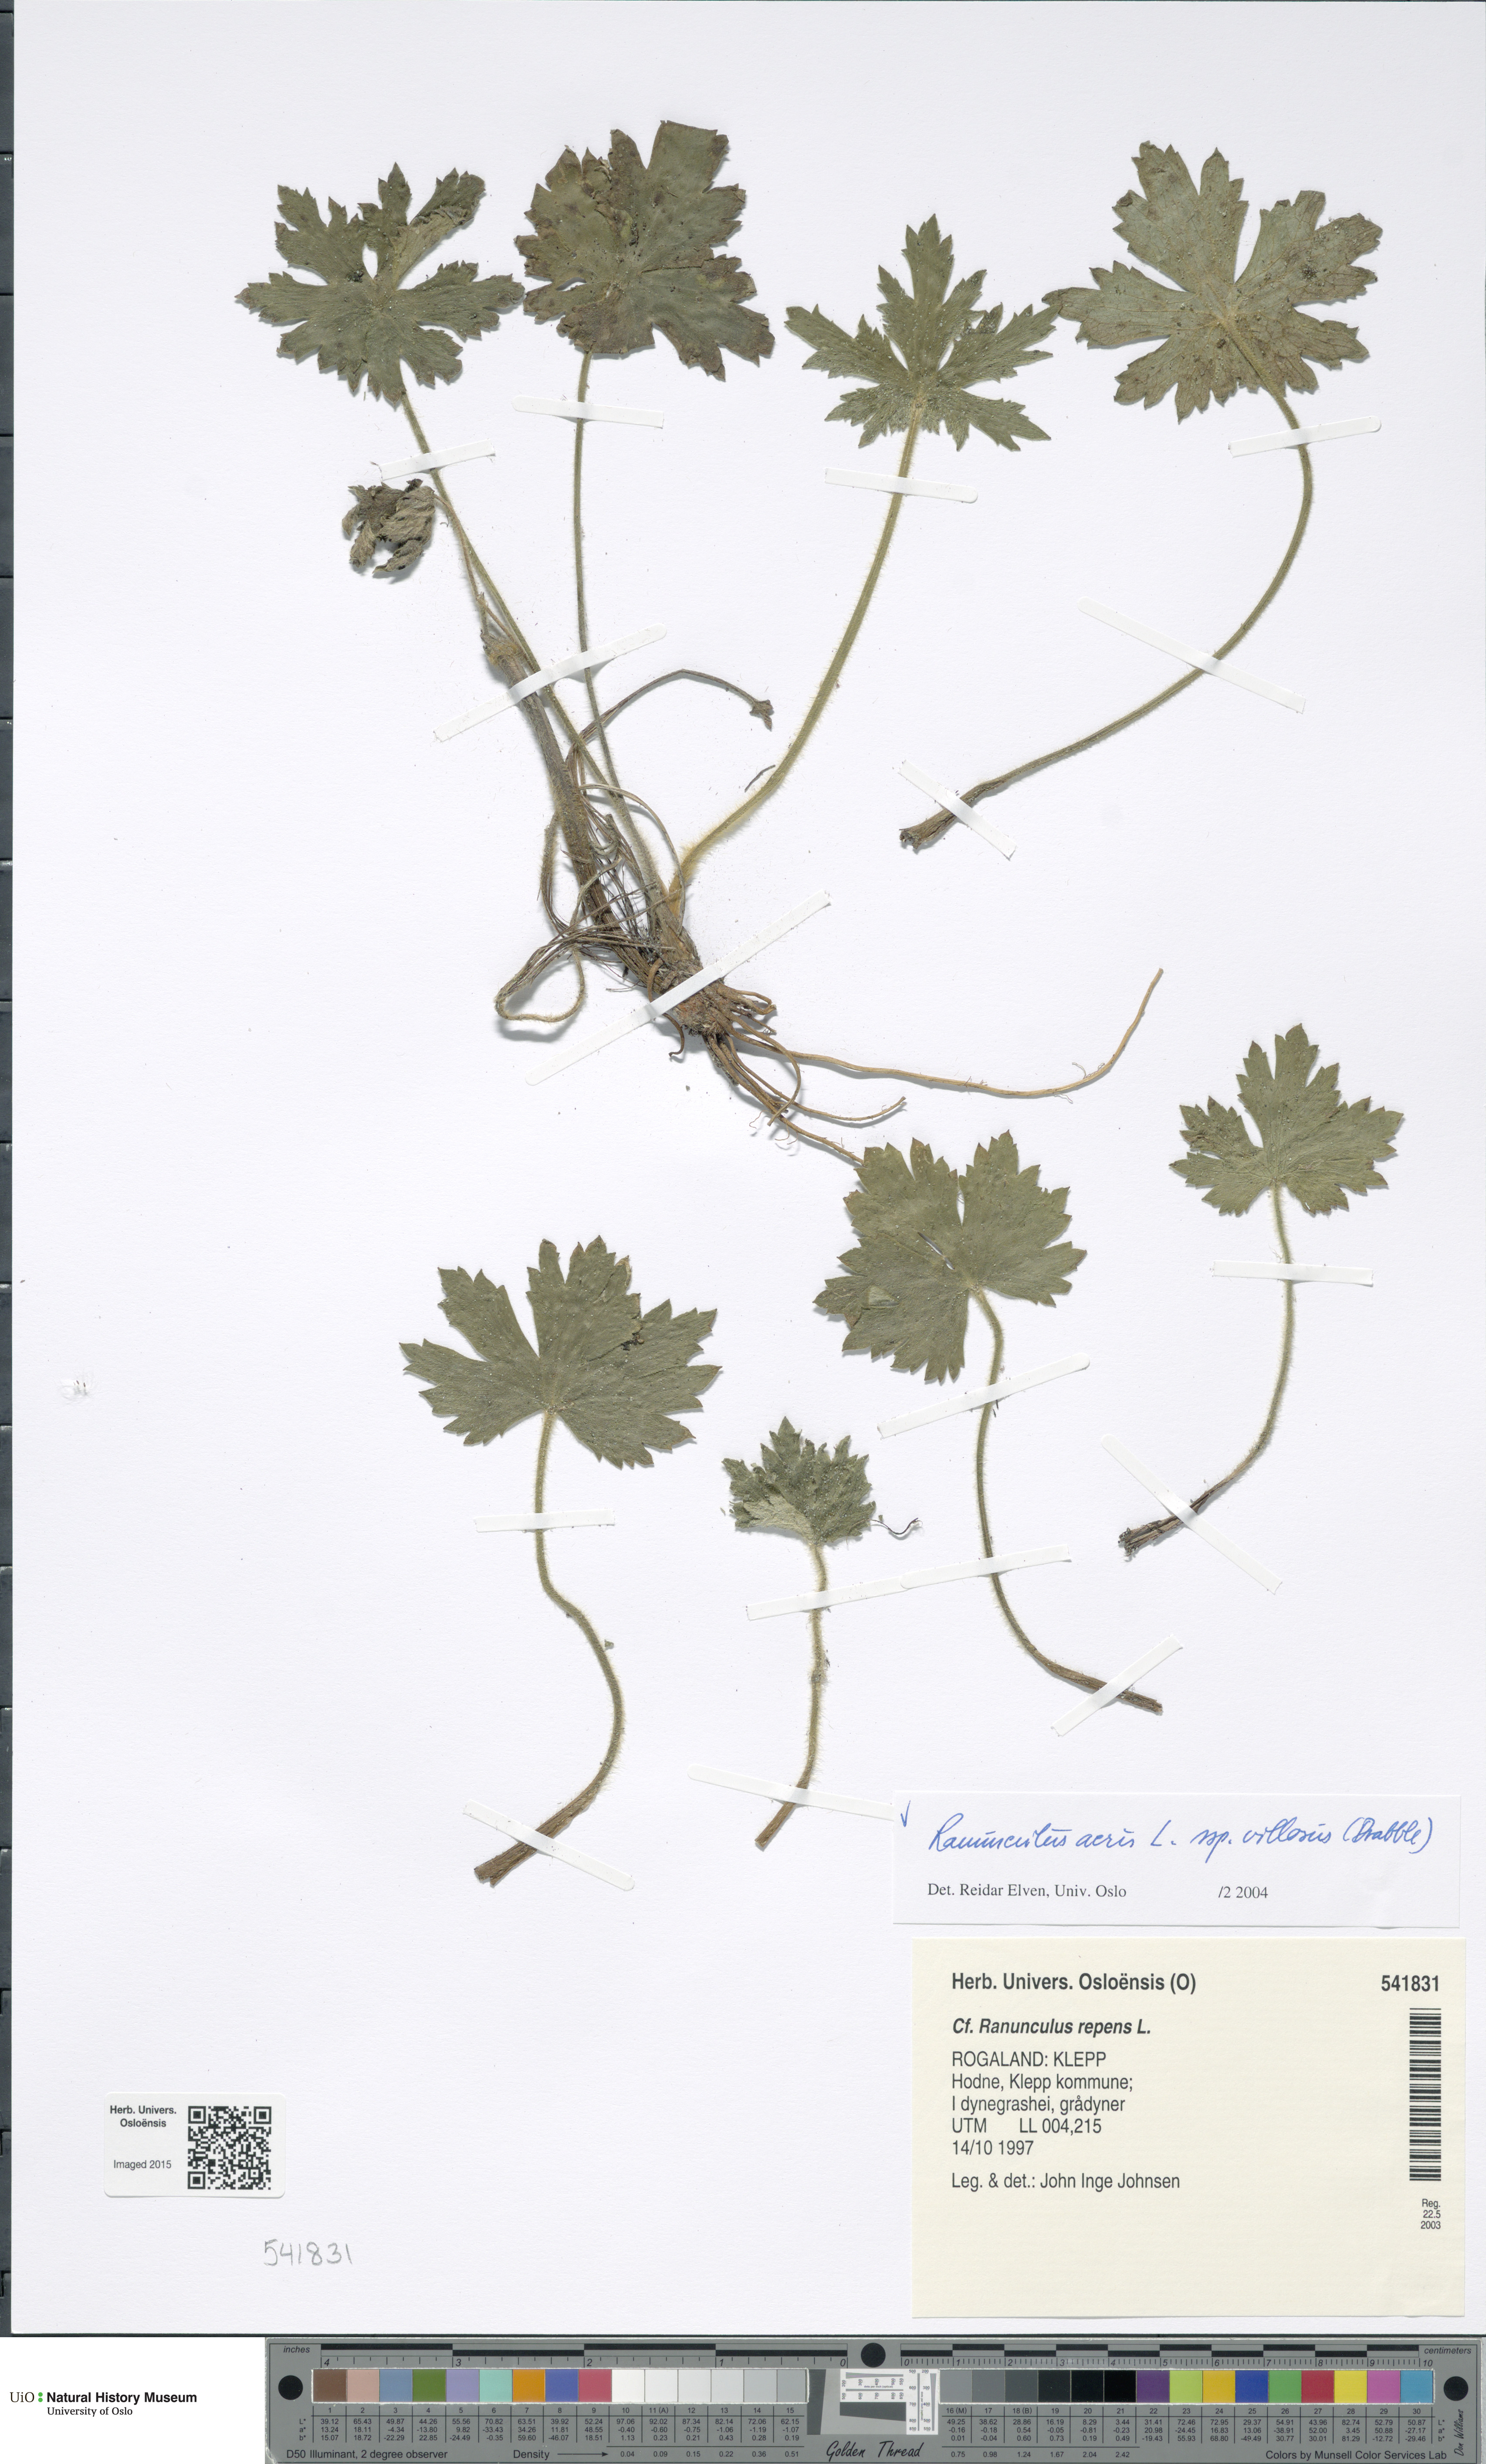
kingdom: Plantae
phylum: Tracheophyta
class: Magnoliopsida
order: Ranunculales
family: Ranunculaceae
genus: Ranunculus
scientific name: Ranunculus propinquus
